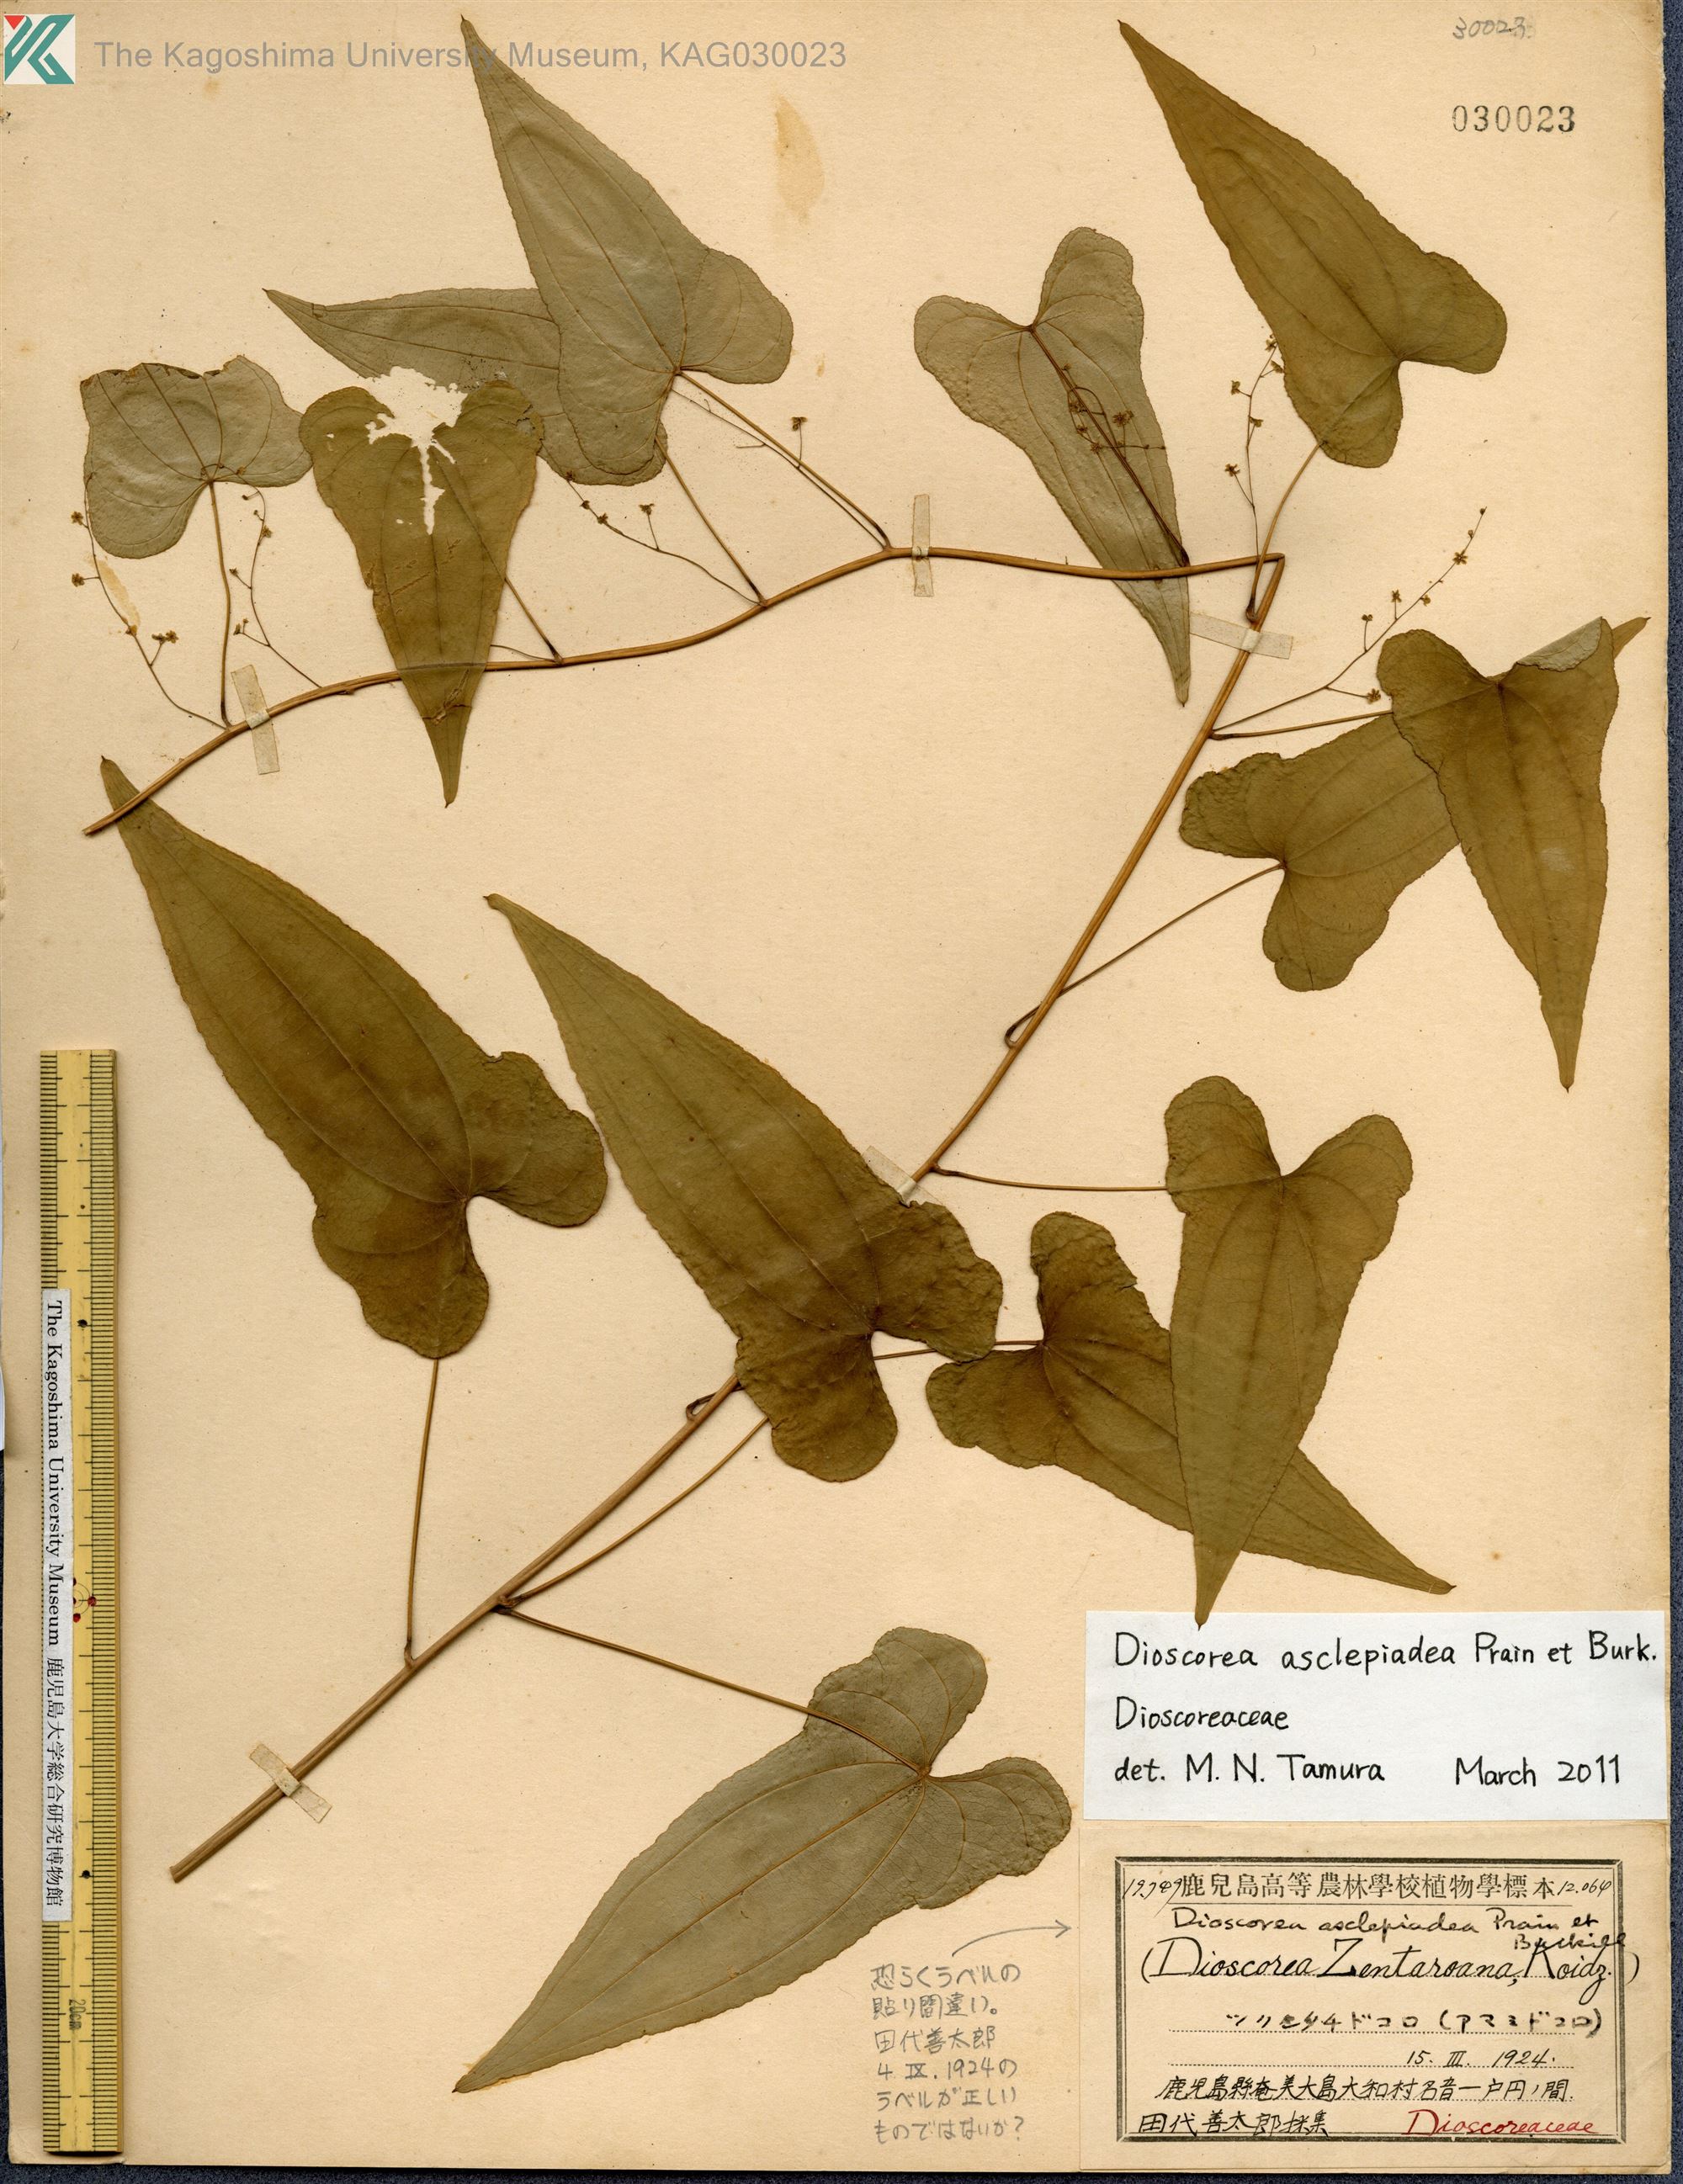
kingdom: Plantae
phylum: Tracheophyta
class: Liliopsida
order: Dioscoreales
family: Dioscoreaceae
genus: Dioscorea
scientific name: Dioscorea asclepiadea
